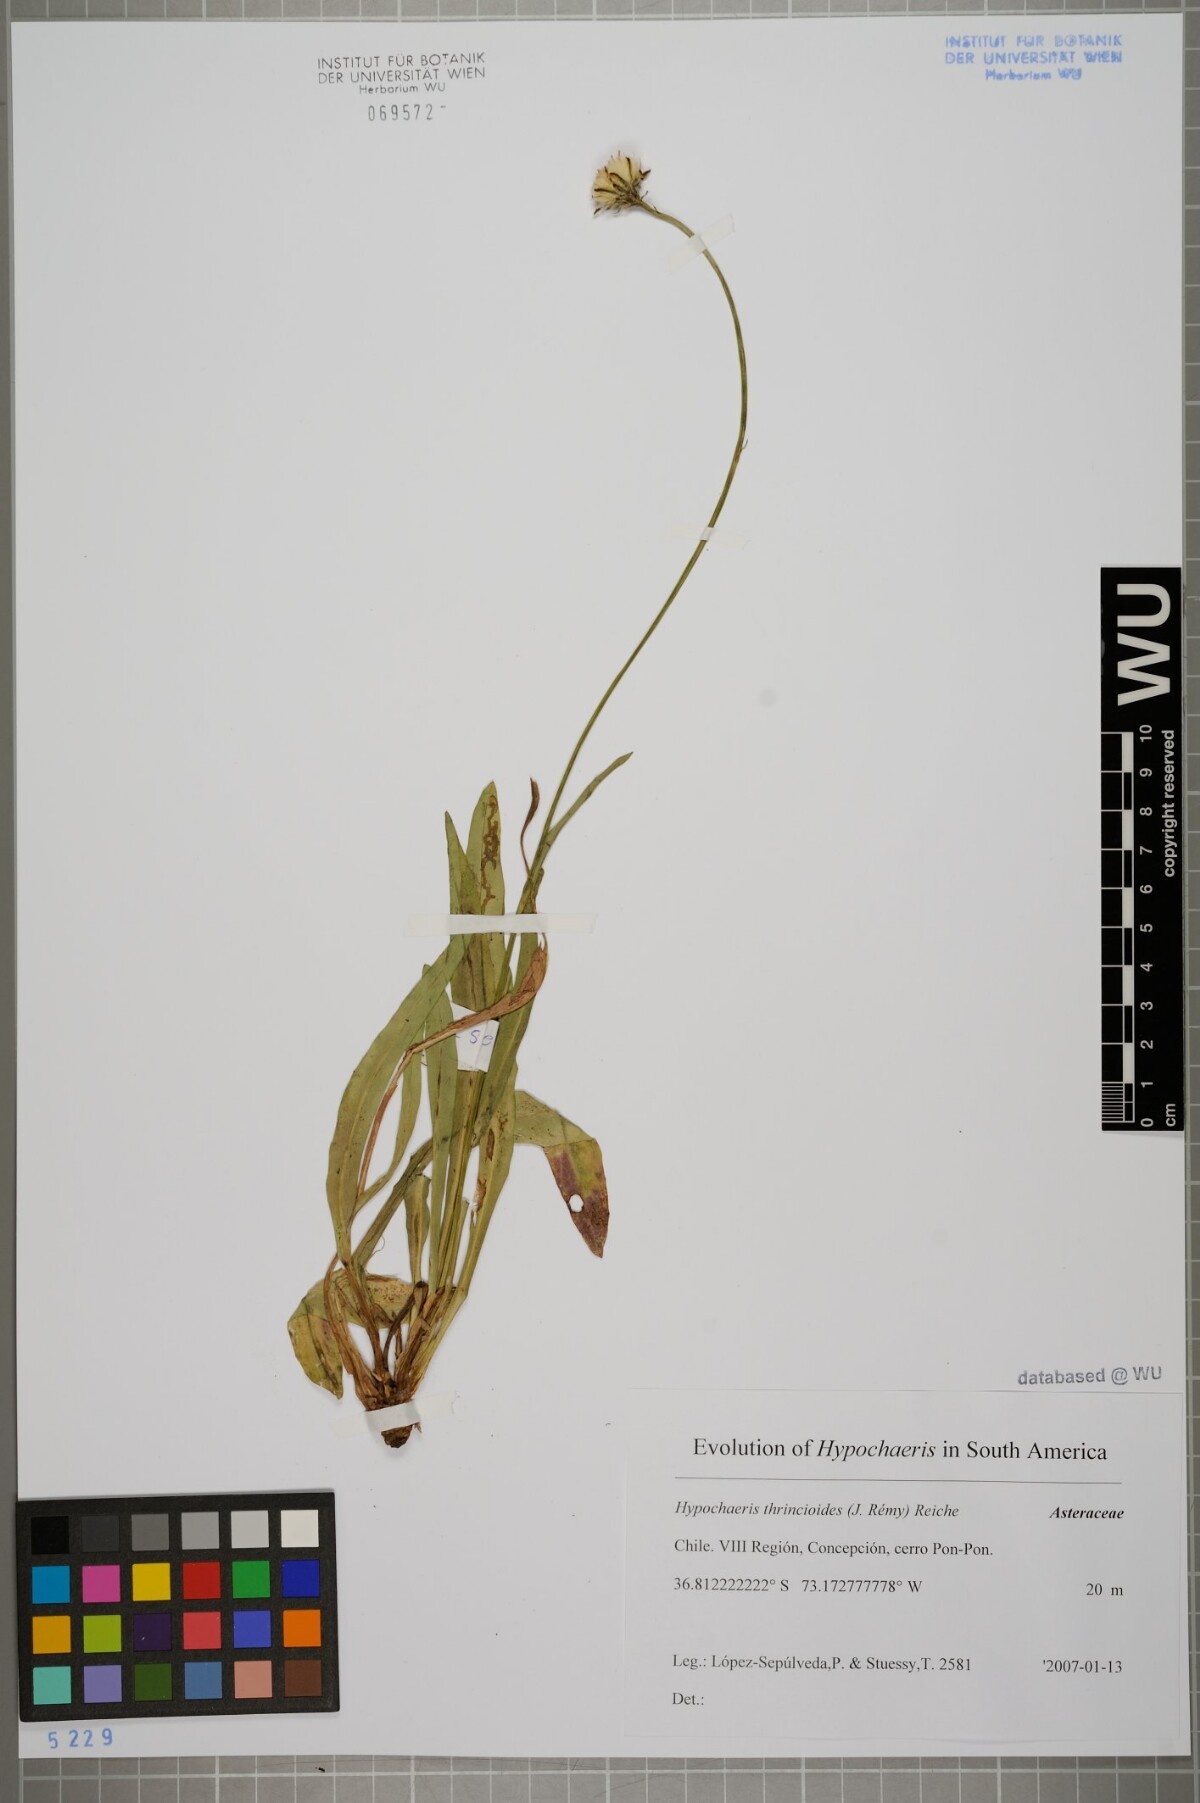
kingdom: Plantae
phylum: Tracheophyta
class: Magnoliopsida
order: Asterales
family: Asteraceae
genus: Hypochaeris
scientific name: Hypochaeris apargioides
